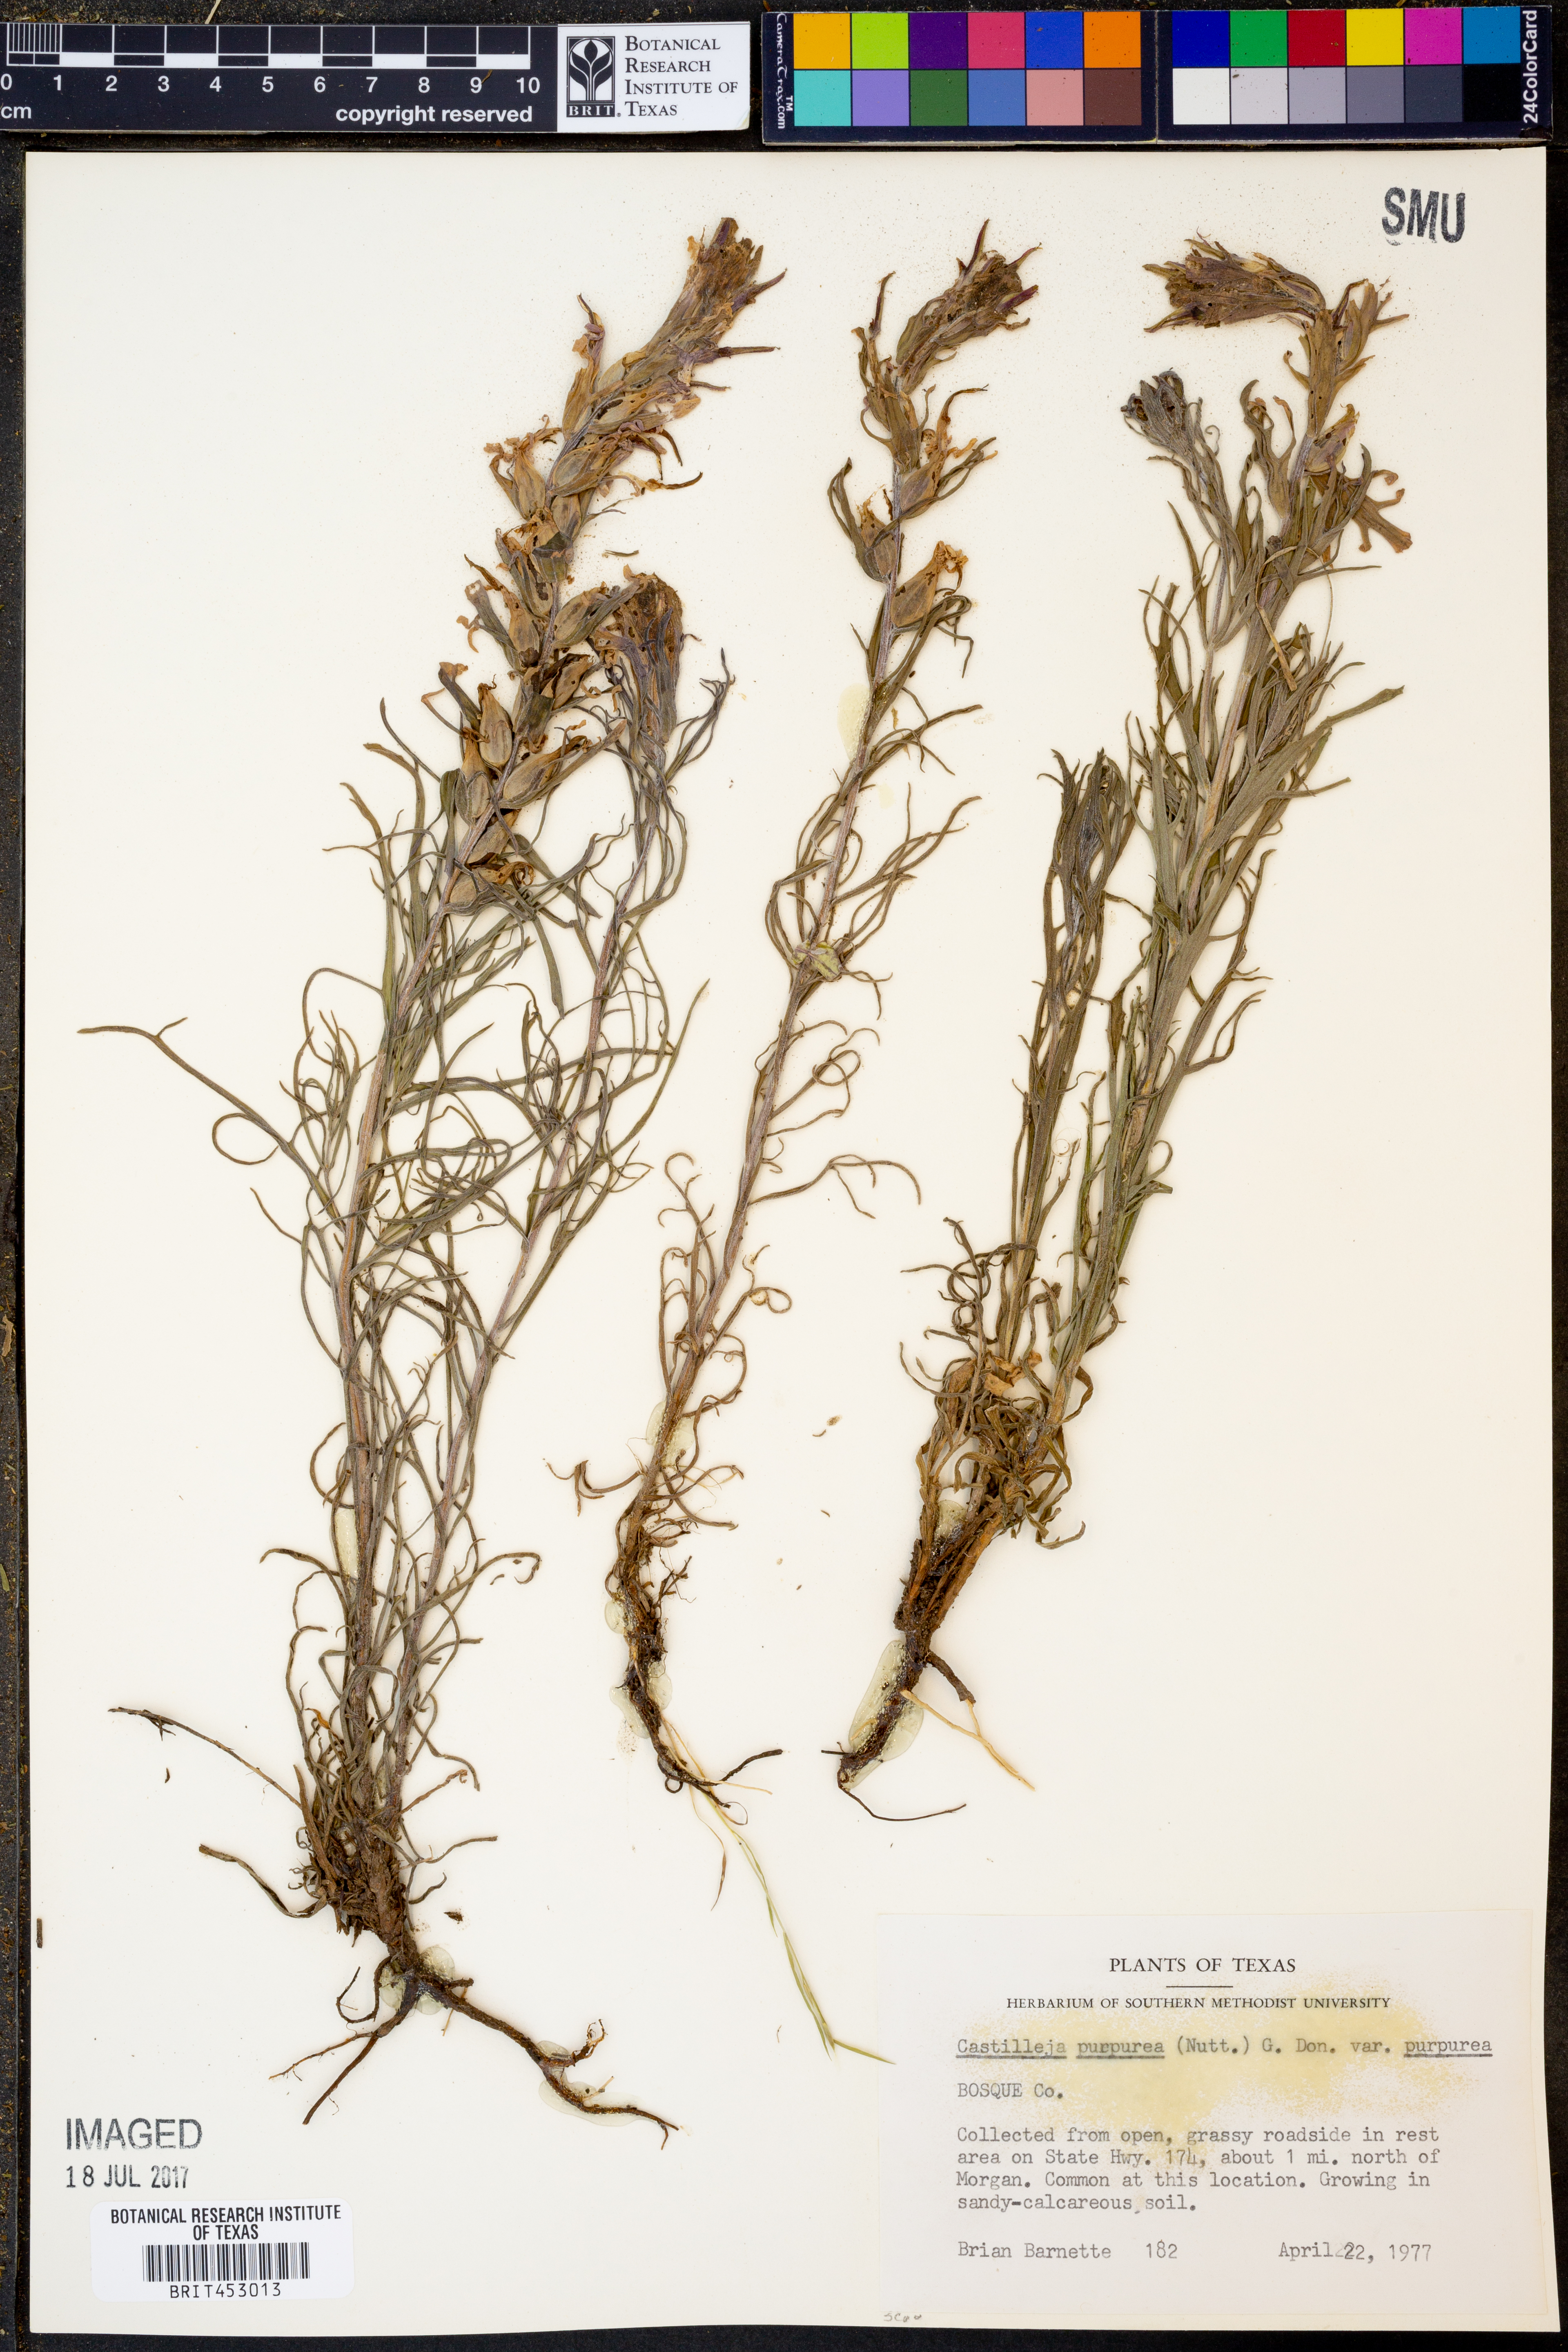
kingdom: Plantae
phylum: Tracheophyta
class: Magnoliopsida
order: Lamiales
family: Orobanchaceae
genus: Castilleja
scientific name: Castilleja purpurea
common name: Plains paintbrush
